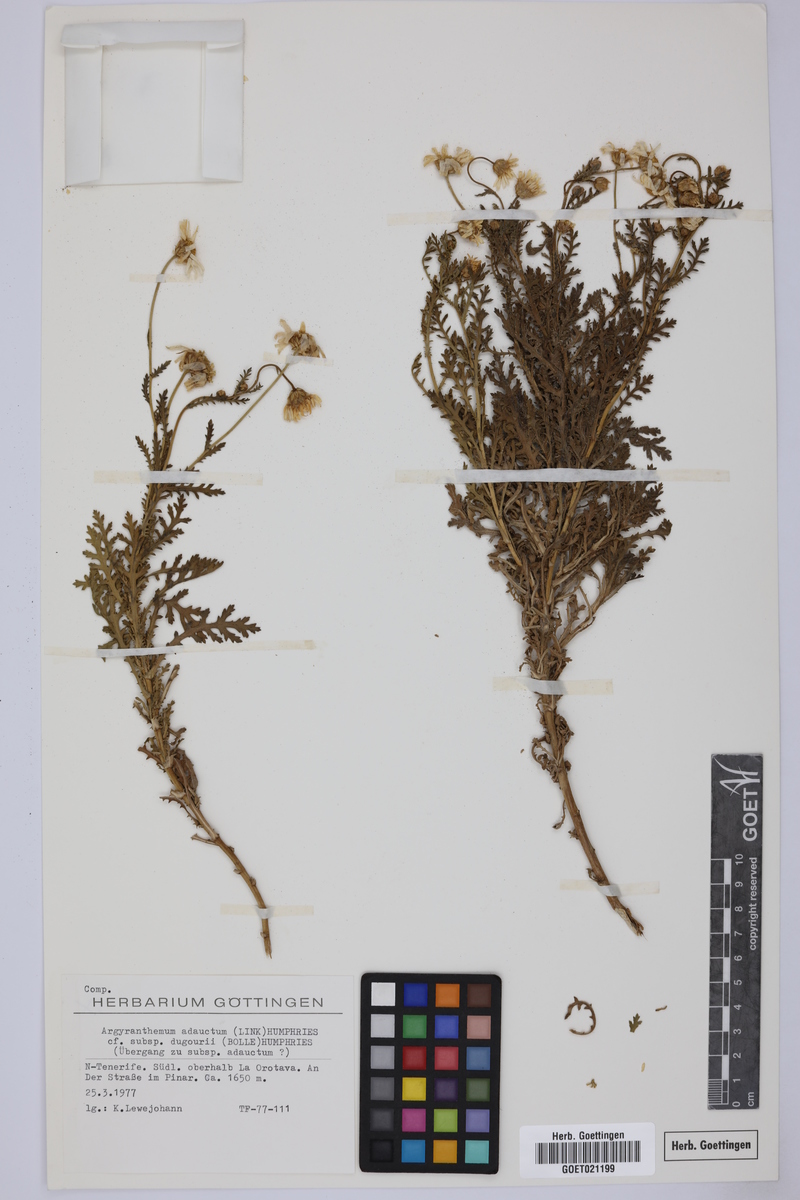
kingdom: Plantae
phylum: Tracheophyta
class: Magnoliopsida
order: Asterales
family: Asteraceae
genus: Argyranthemum
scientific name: Argyranthemum adauctum
